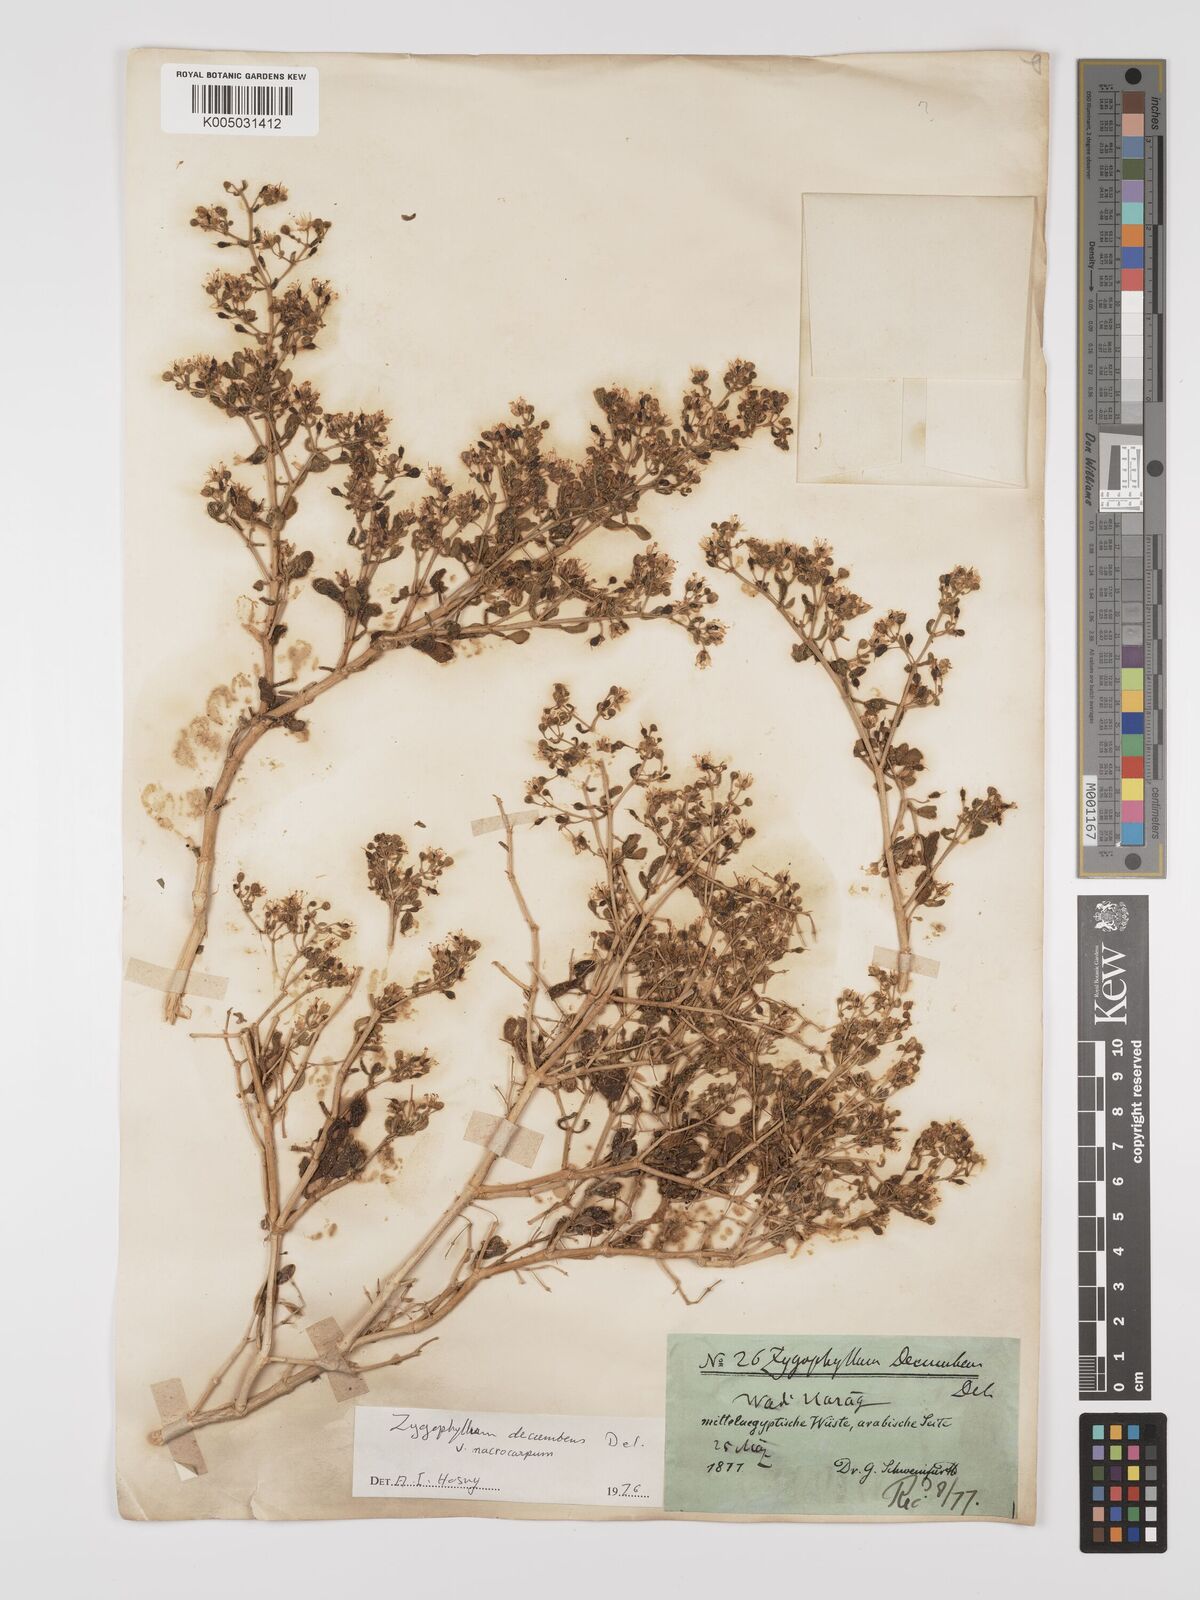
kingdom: Plantae
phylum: Tracheophyta
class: Magnoliopsida
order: Zygophyllales
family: Zygophyllaceae
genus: Tetraena
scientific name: Tetraena decumbens
